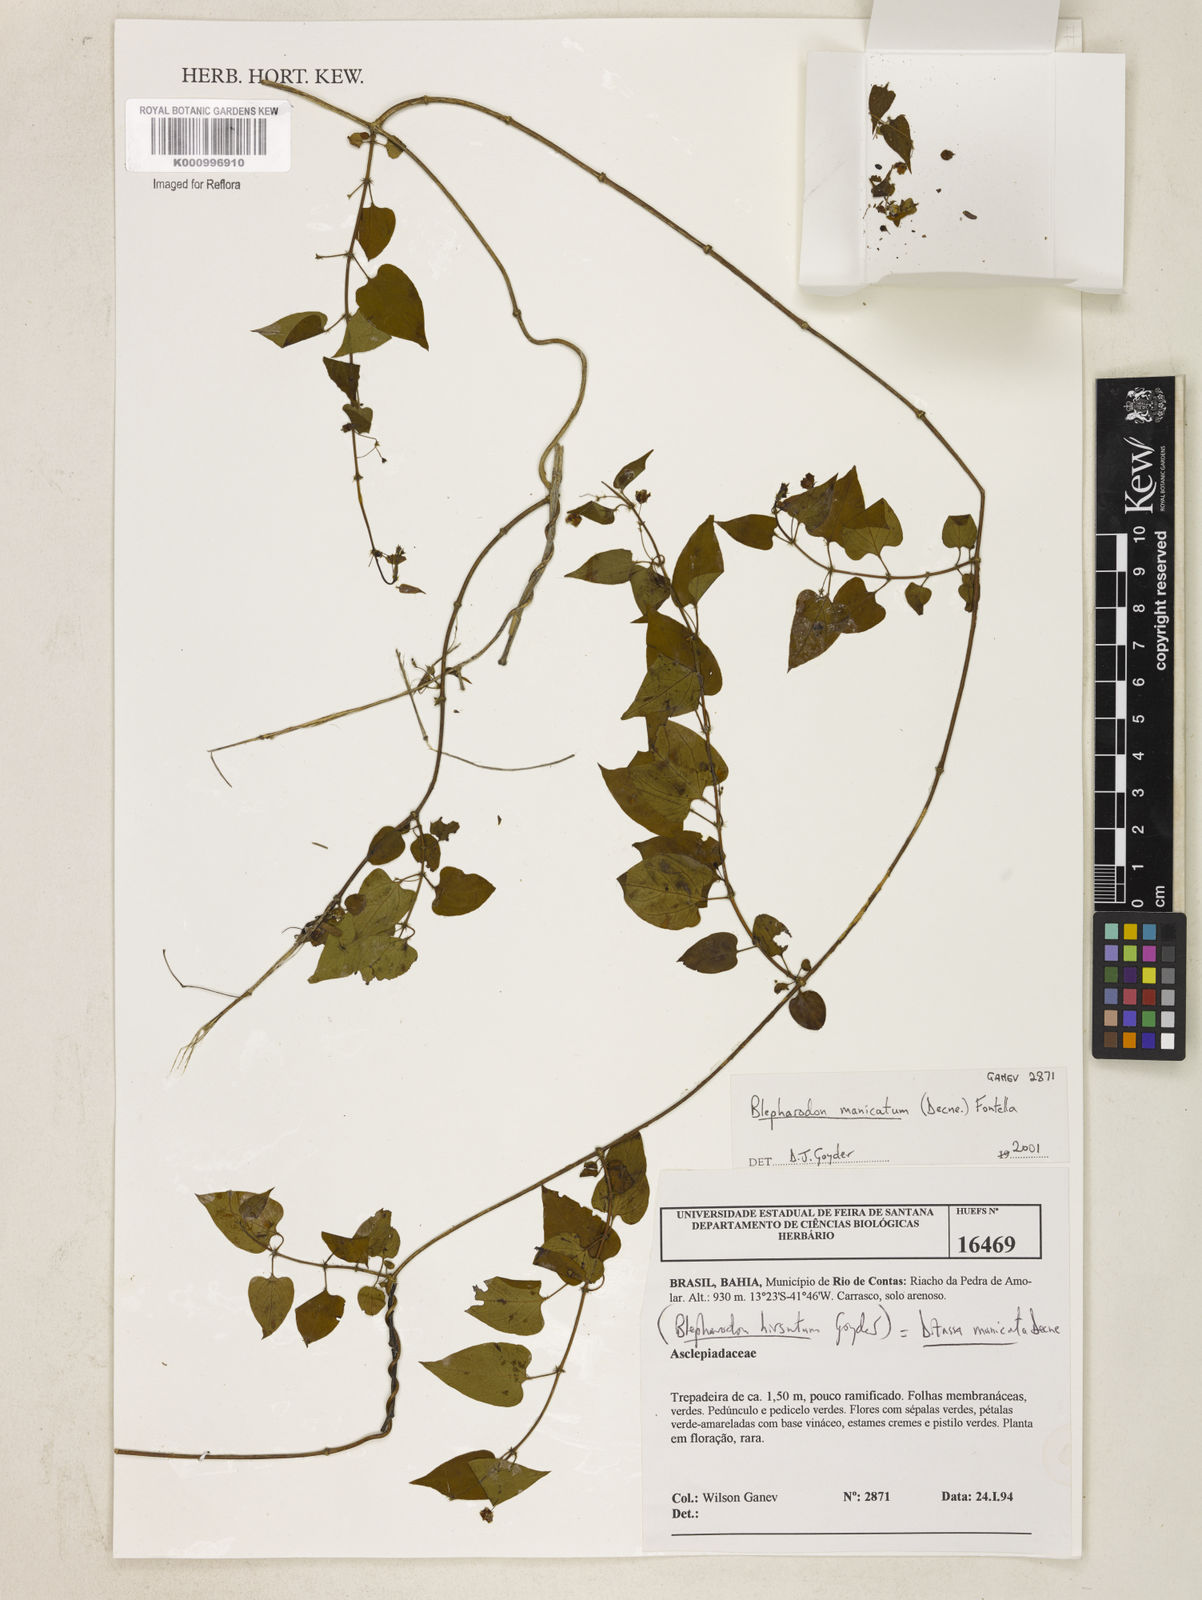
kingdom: Plantae
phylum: Tracheophyta
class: Magnoliopsida
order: Gentianales
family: Apocynaceae
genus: Blepharodon
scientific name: Blepharodon manicatum
